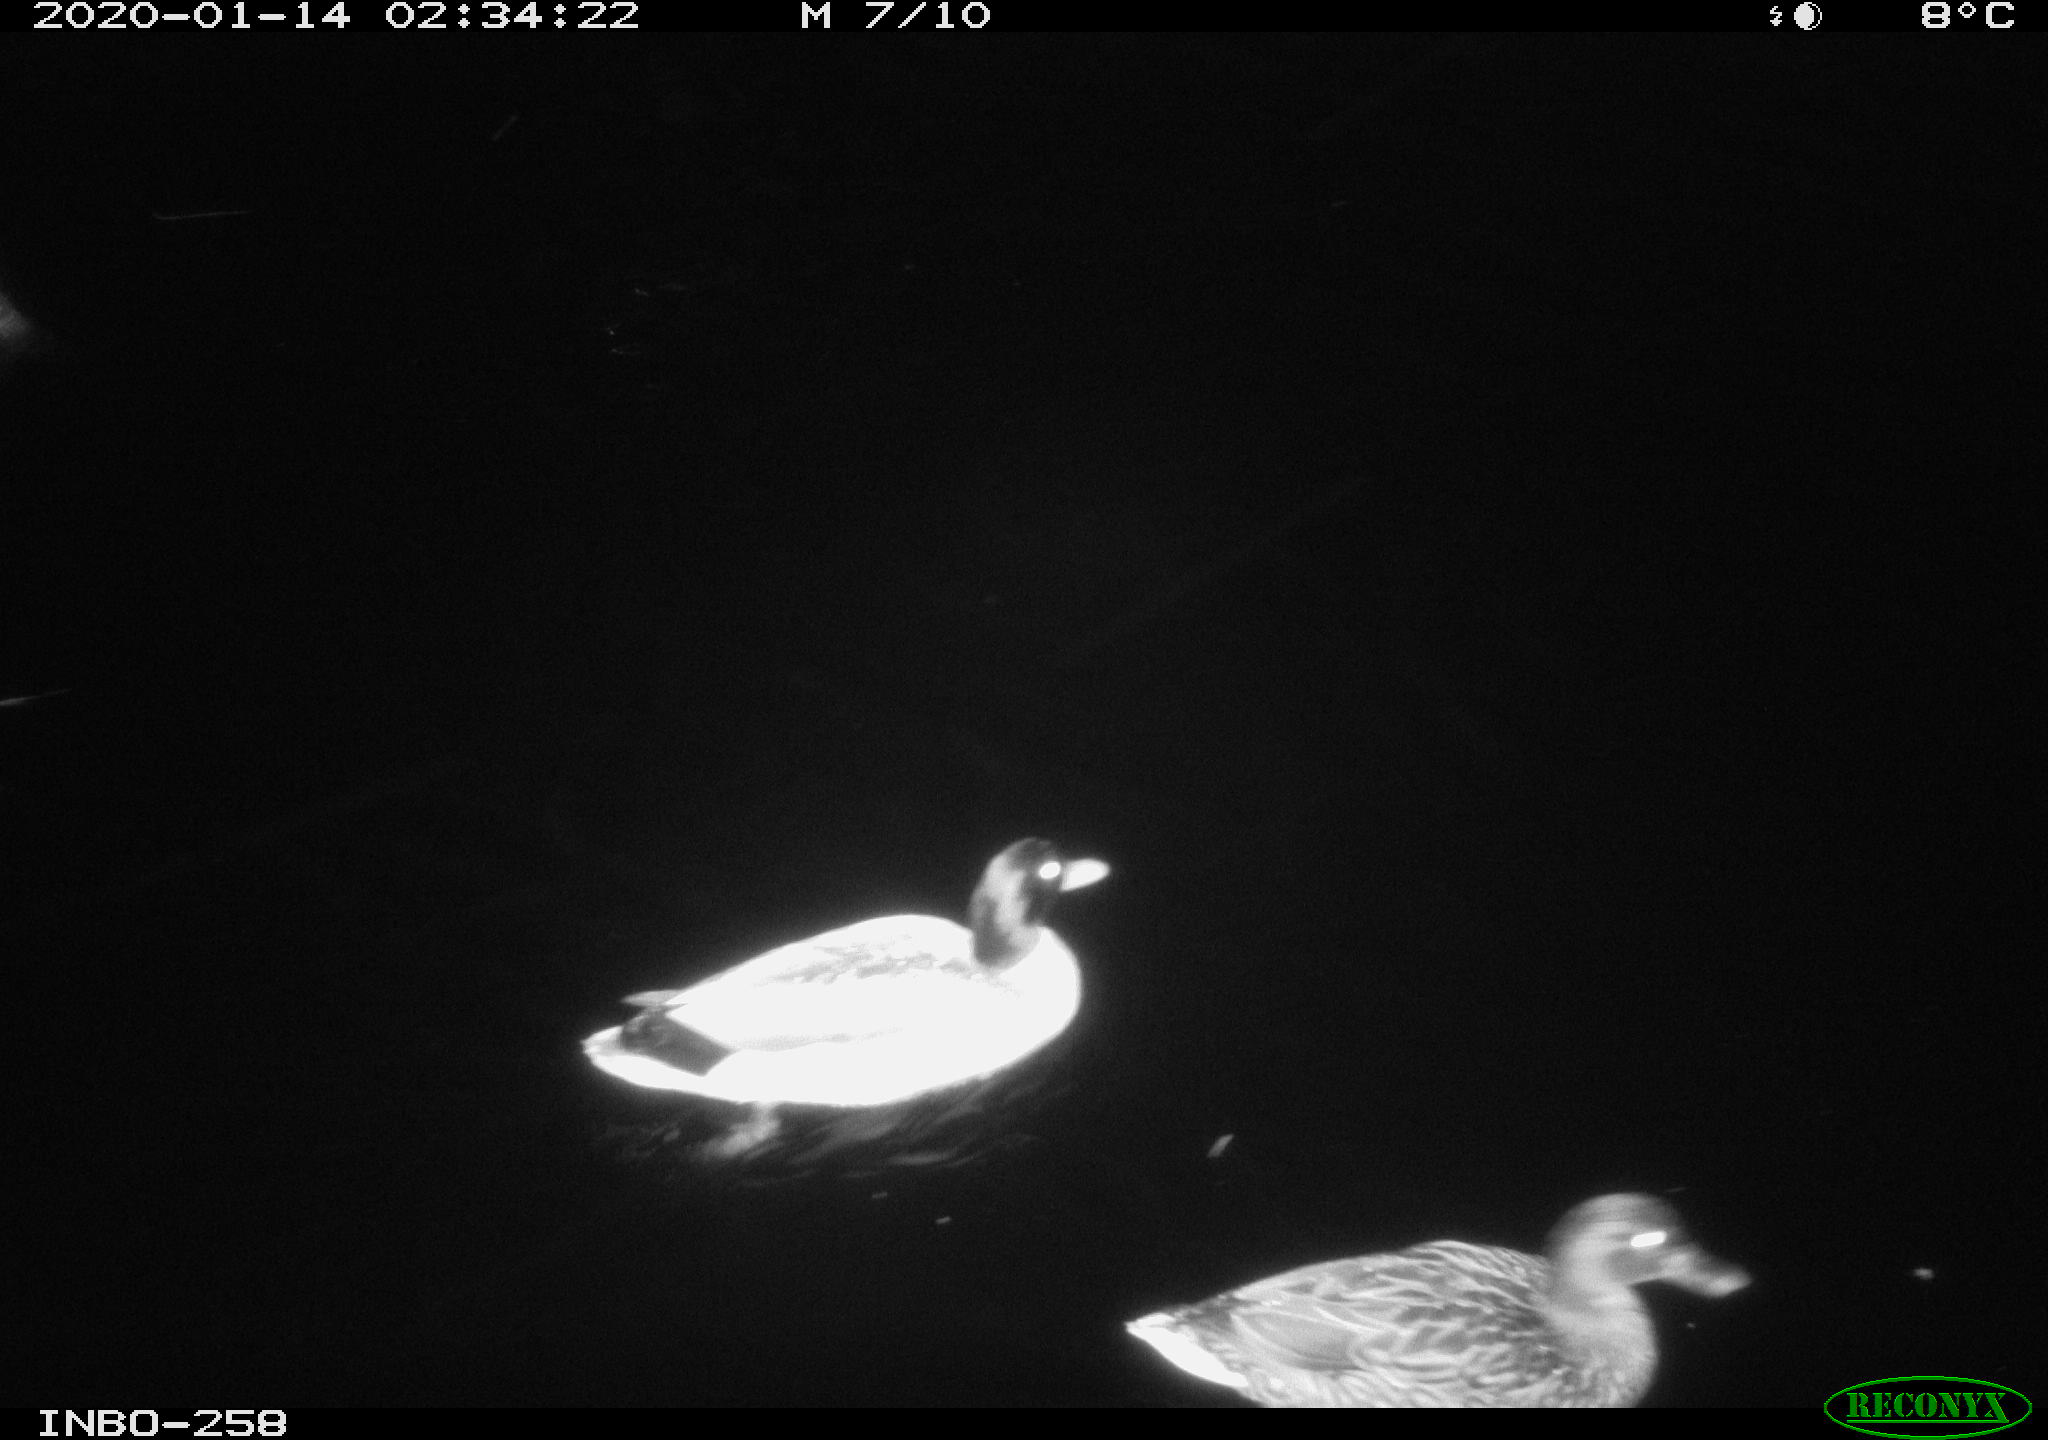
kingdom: Animalia
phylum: Chordata
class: Aves
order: Anseriformes
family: Anatidae
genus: Anas
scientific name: Anas platyrhynchos
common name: Mallard
